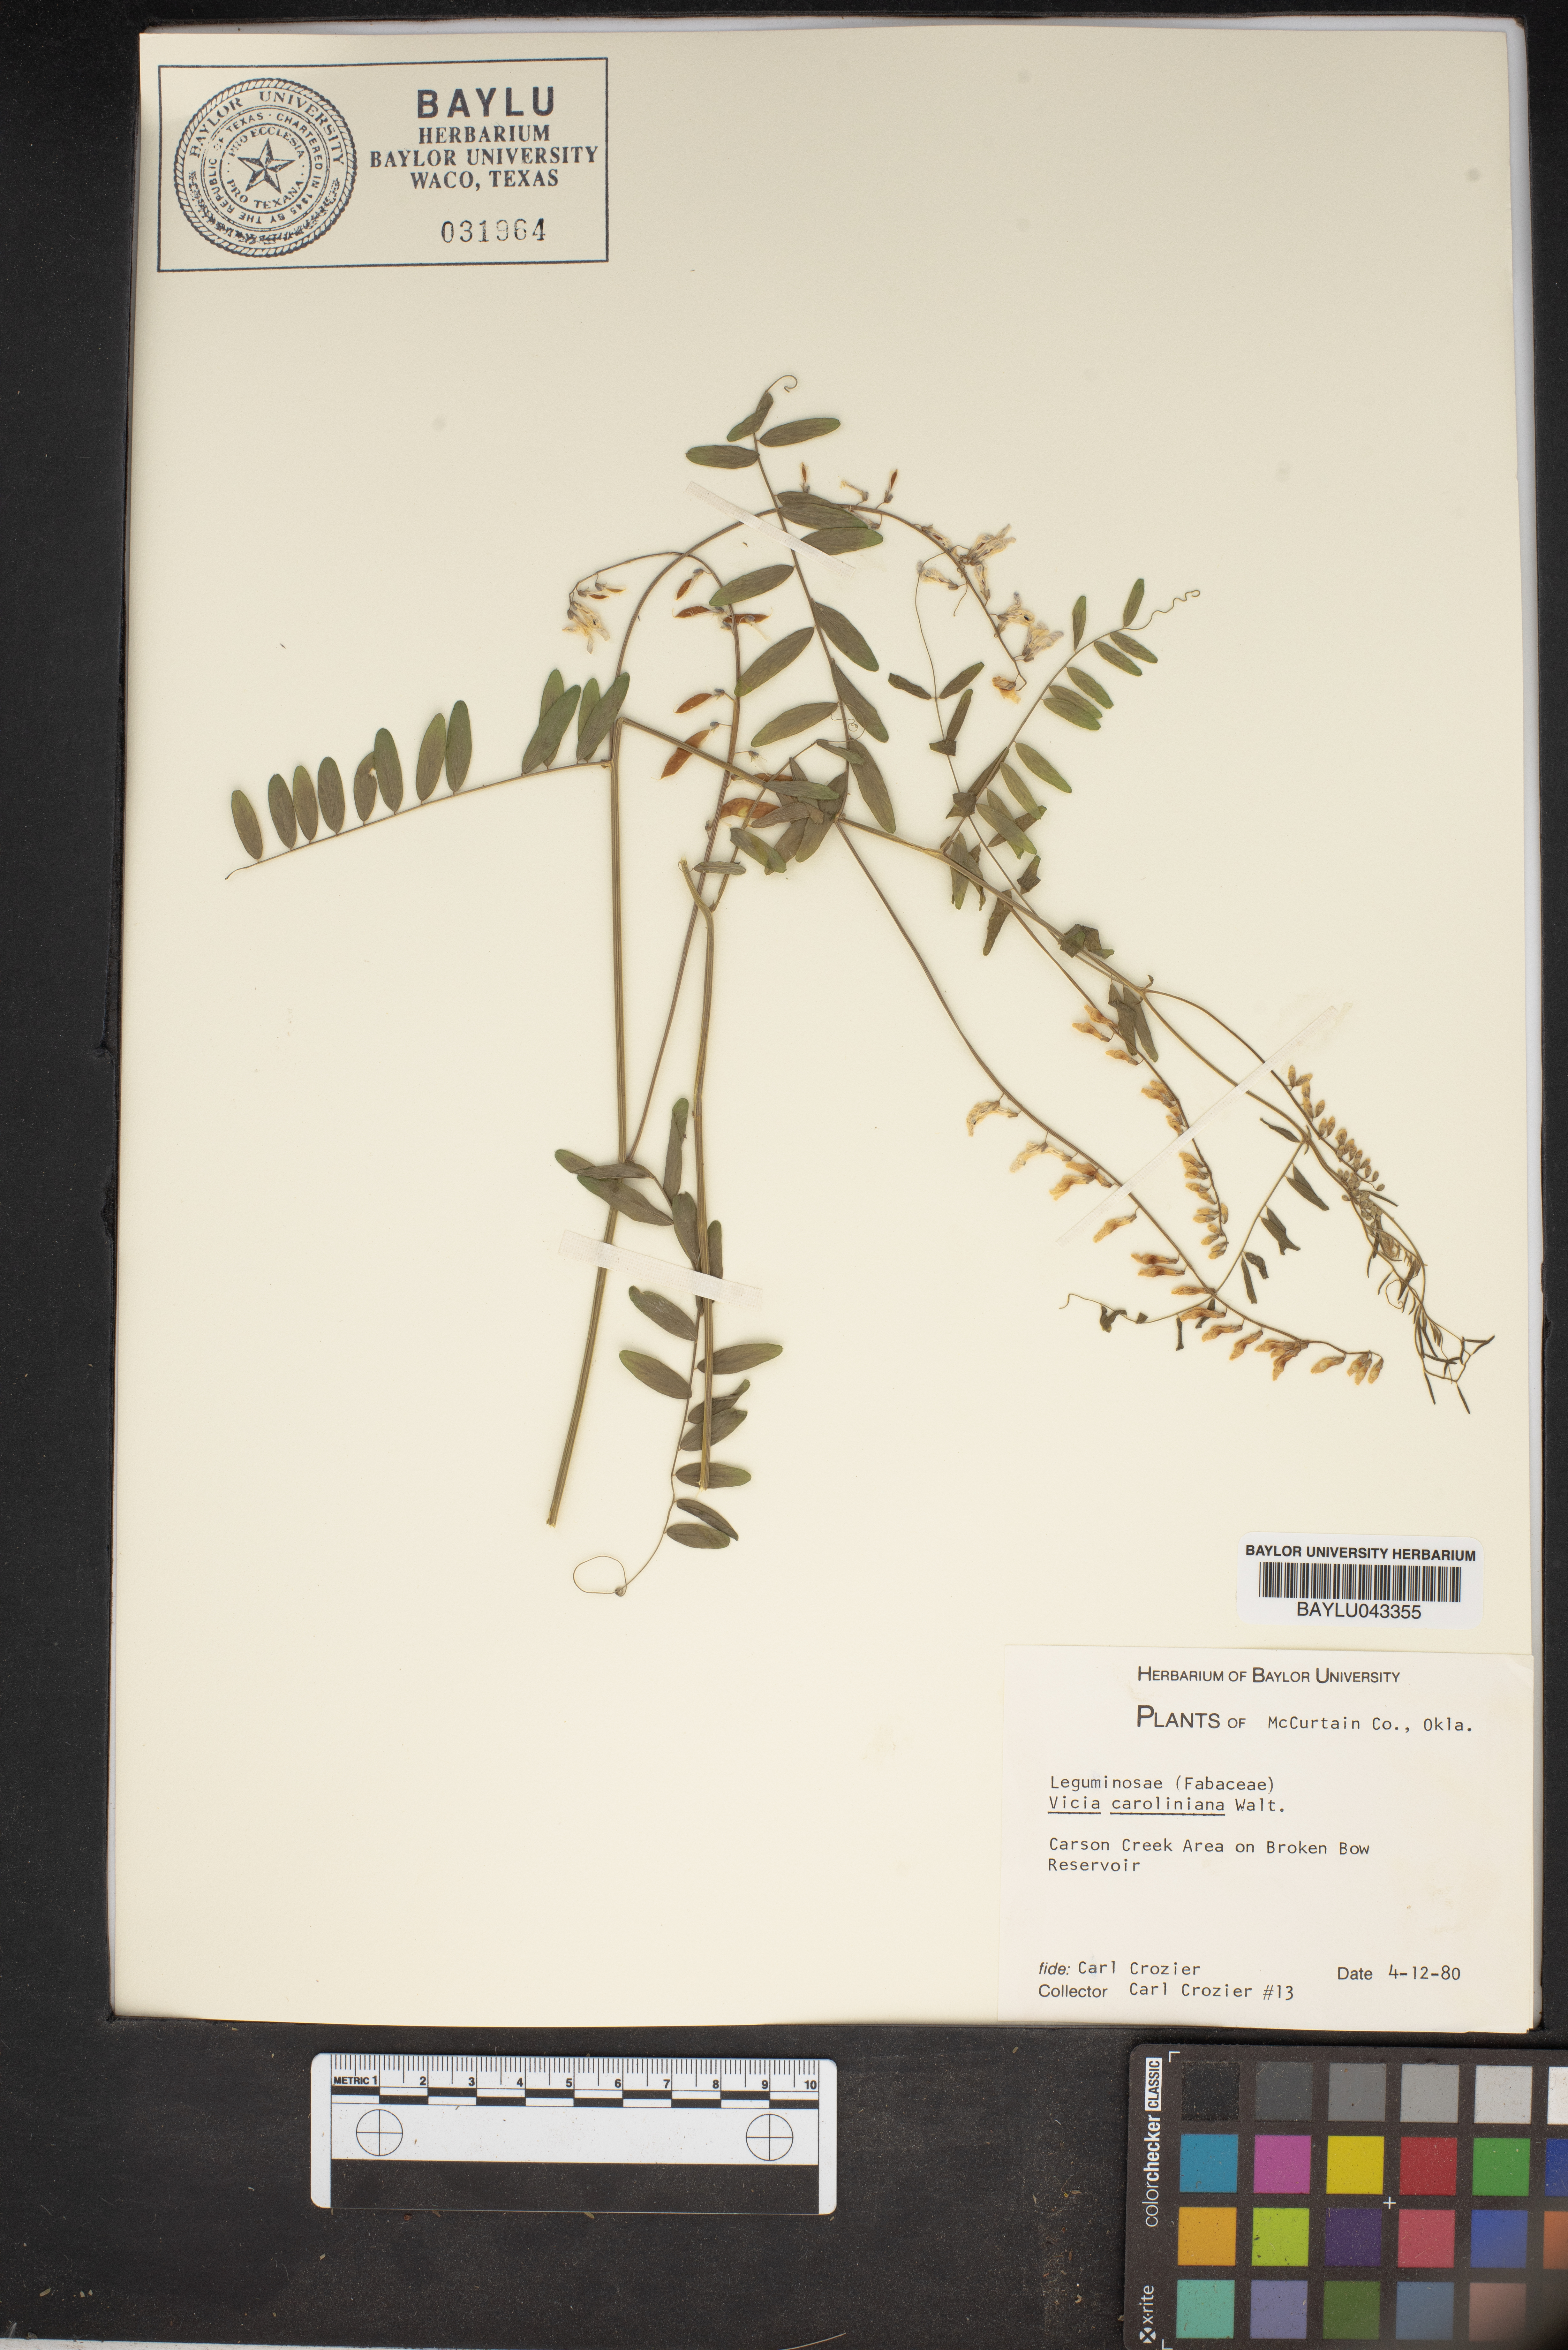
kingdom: Plantae
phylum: Tracheophyta
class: Magnoliopsida
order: Fabales
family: Fabaceae
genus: Vicia
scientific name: Vicia caroliniana
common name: Carolina vetch
